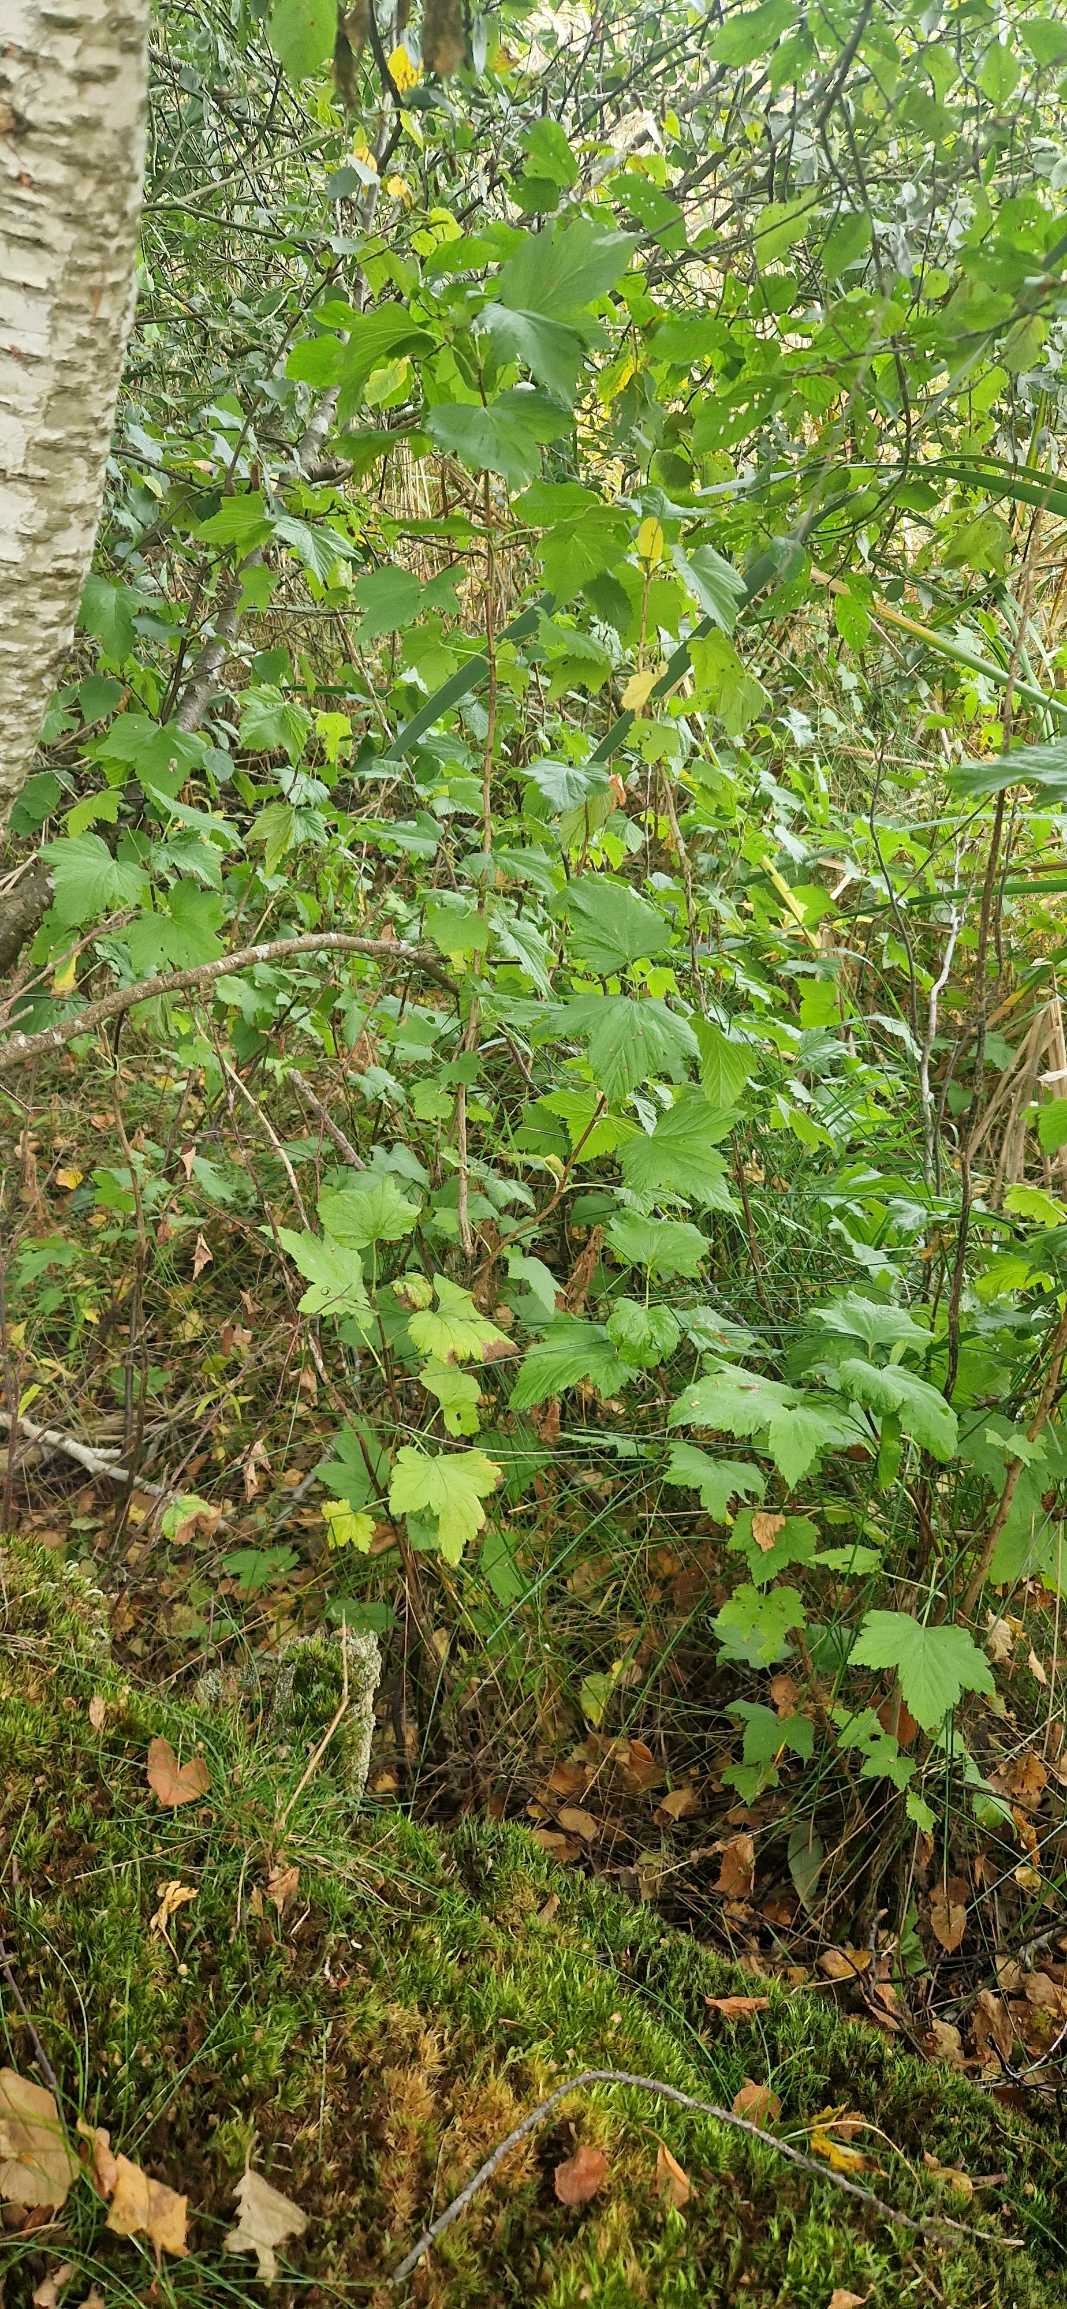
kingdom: Plantae
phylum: Tracheophyta
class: Magnoliopsida
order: Saxifragales
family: Grossulariaceae
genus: Ribes
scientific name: Ribes nigrum
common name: Solbær
